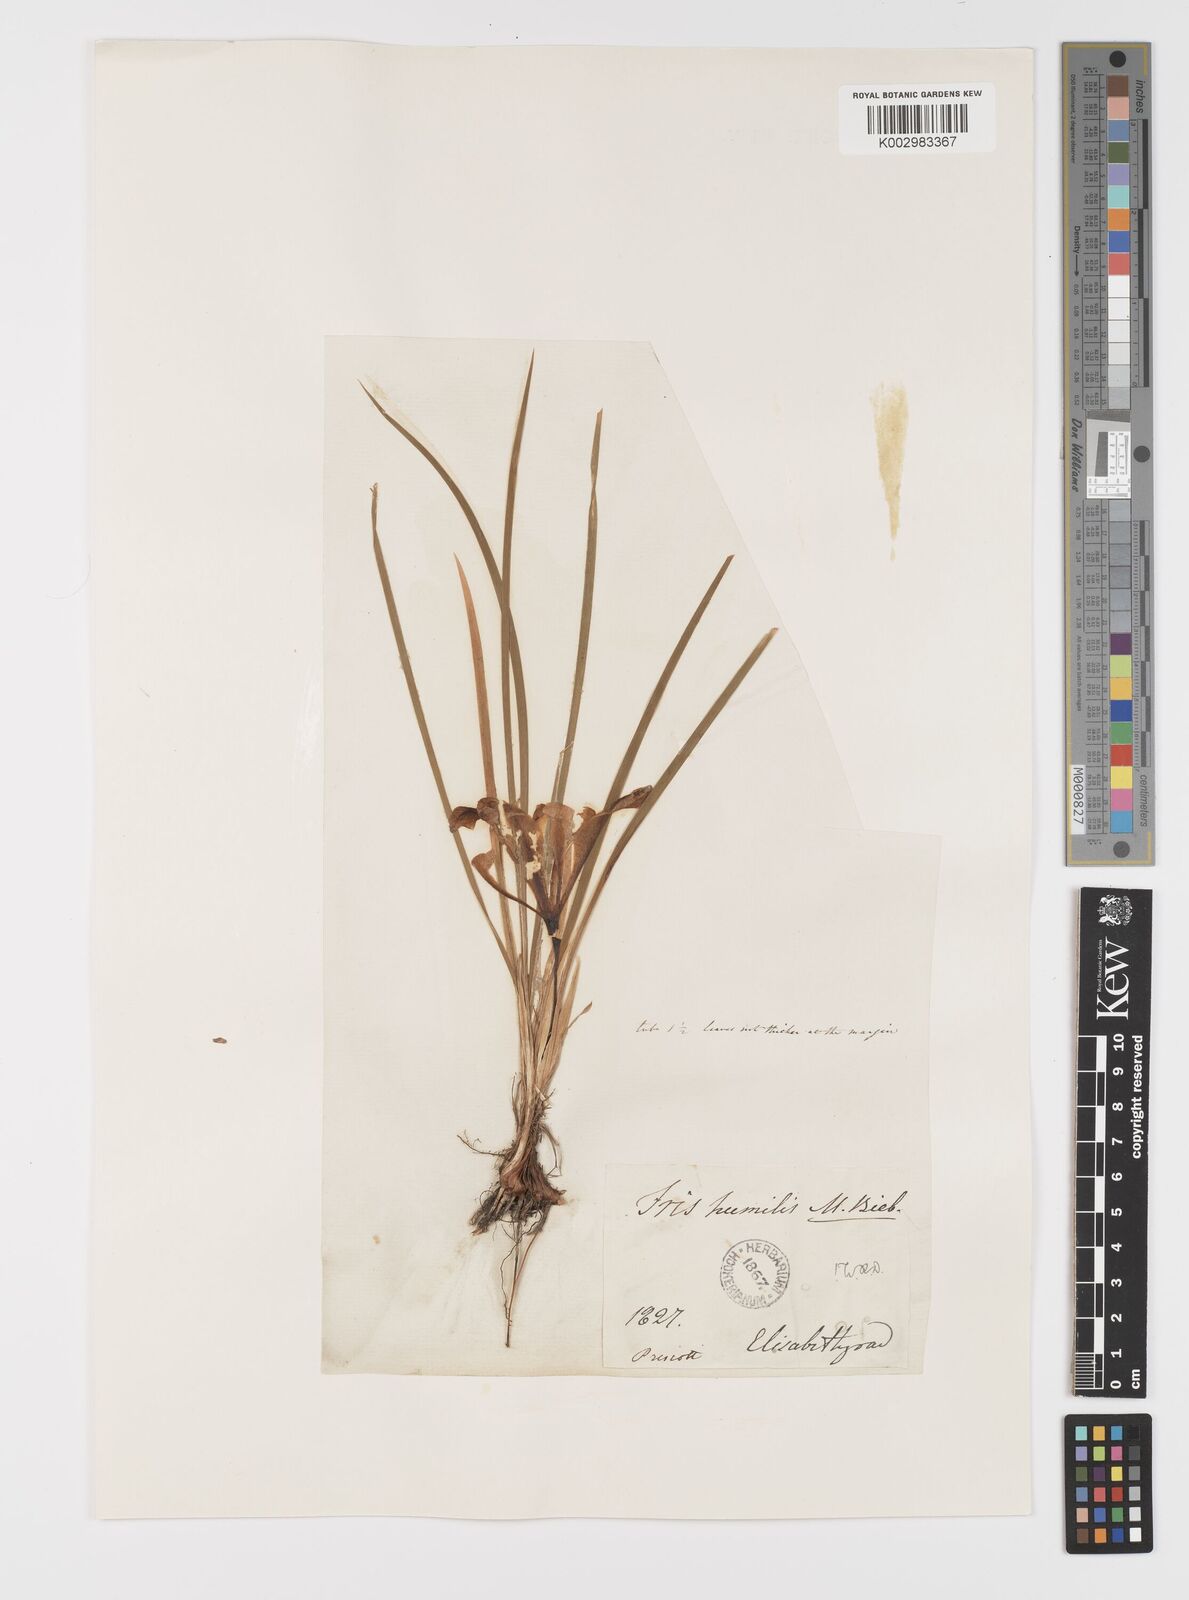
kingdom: Plantae
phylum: Tracheophyta
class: Liliopsida
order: Asparagales
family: Iridaceae
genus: Iris
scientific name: Iris
